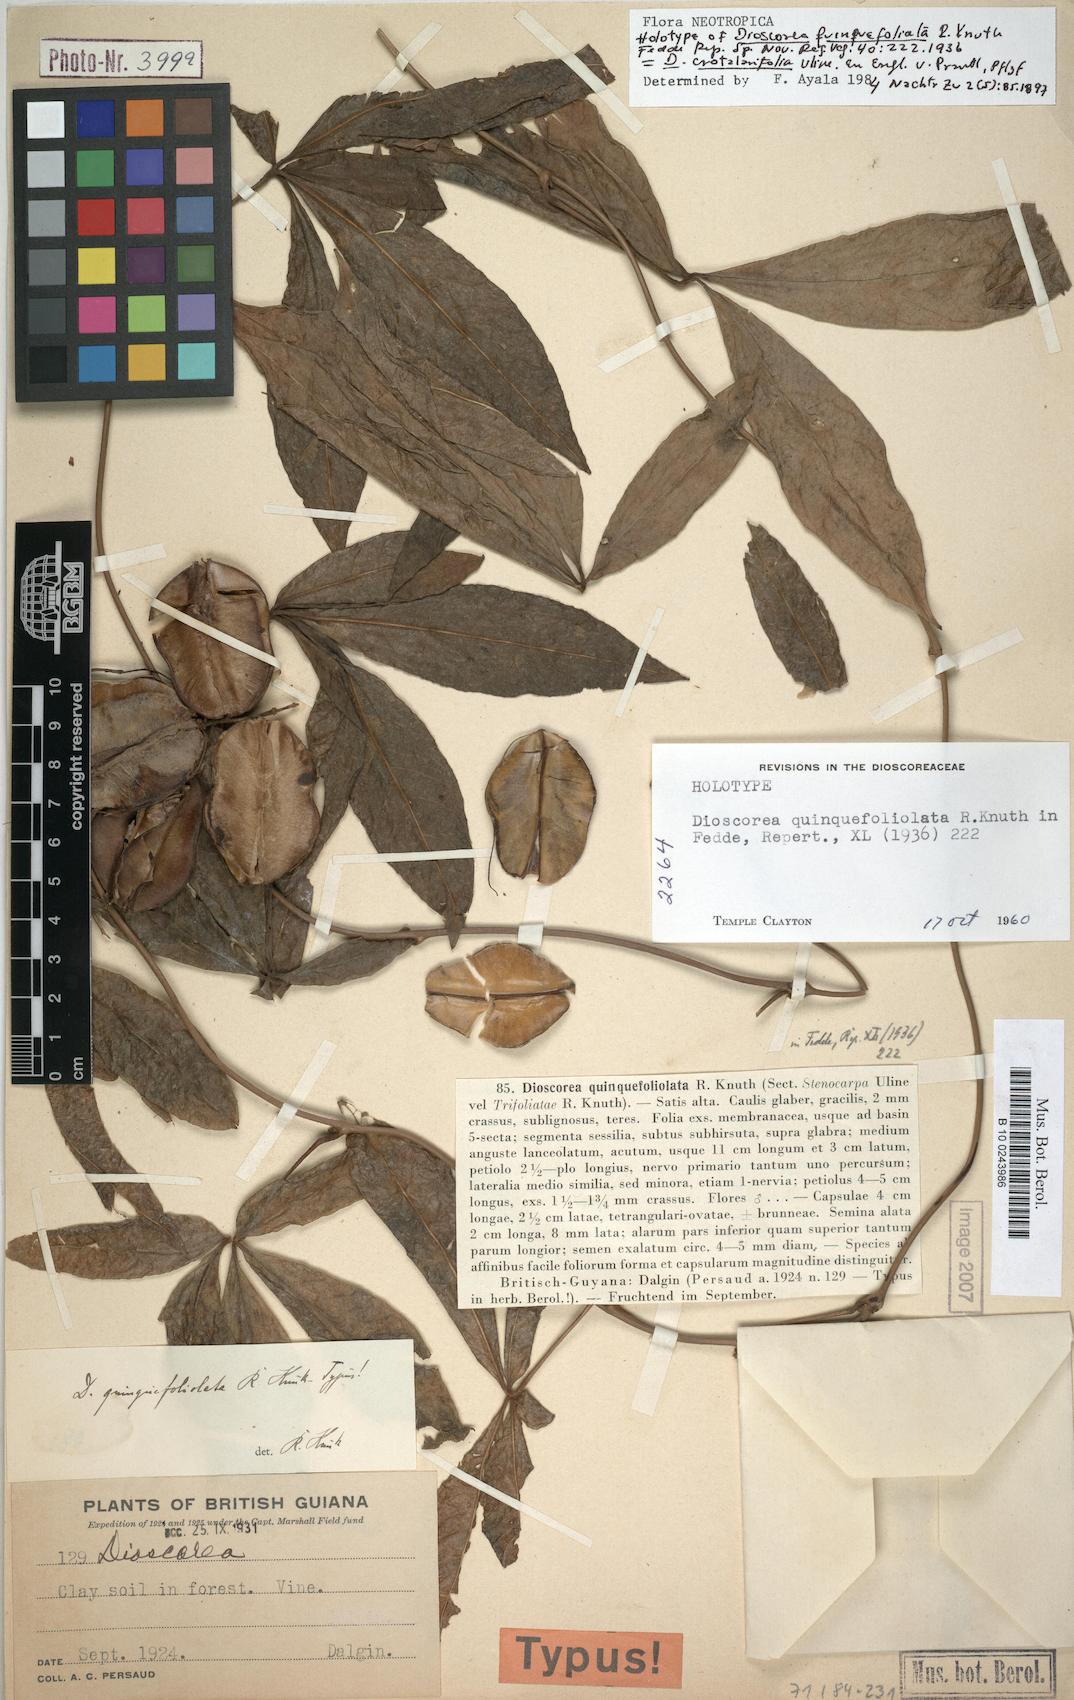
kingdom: Plantae
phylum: Tracheophyta
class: Liliopsida
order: Dioscoreales
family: Dioscoreaceae
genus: Dioscorea
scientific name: Dioscorea crotalariifolia
